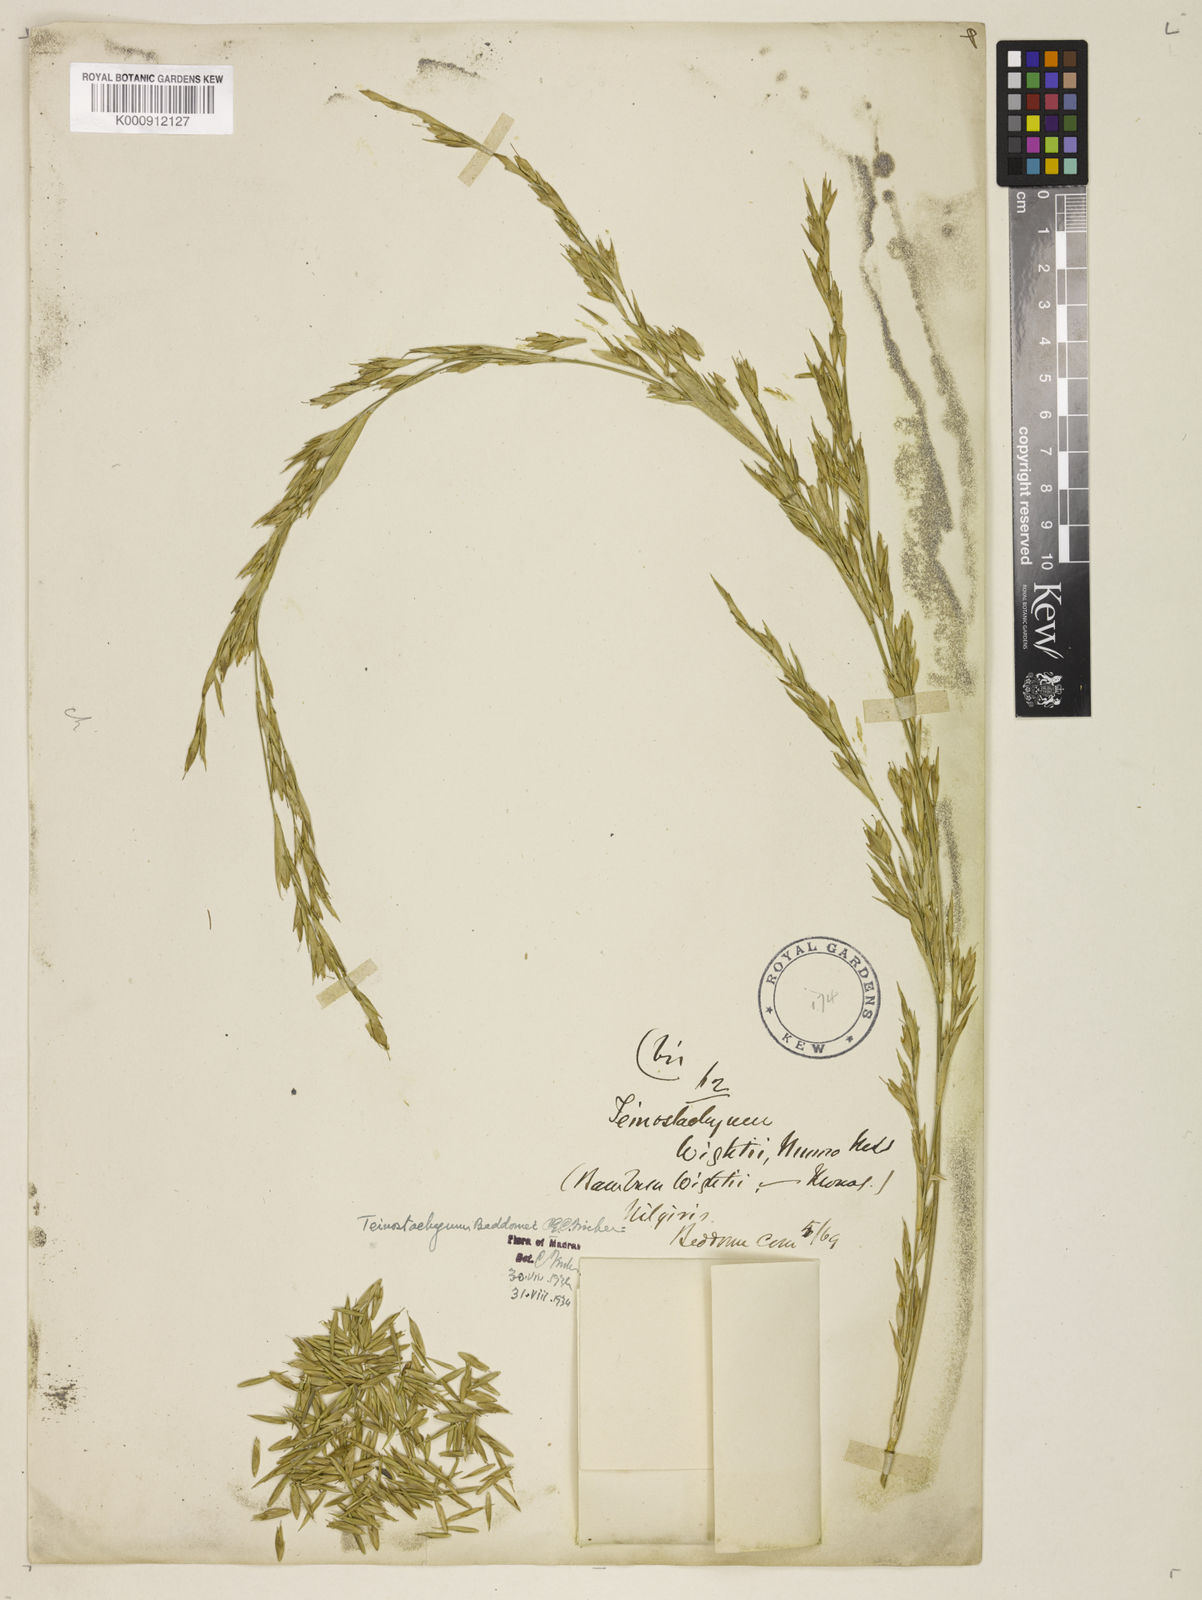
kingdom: Plantae
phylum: Tracheophyta
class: Liliopsida
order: Poales
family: Poaceae
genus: Schizostachyum
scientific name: Schizostachyum beddomei
